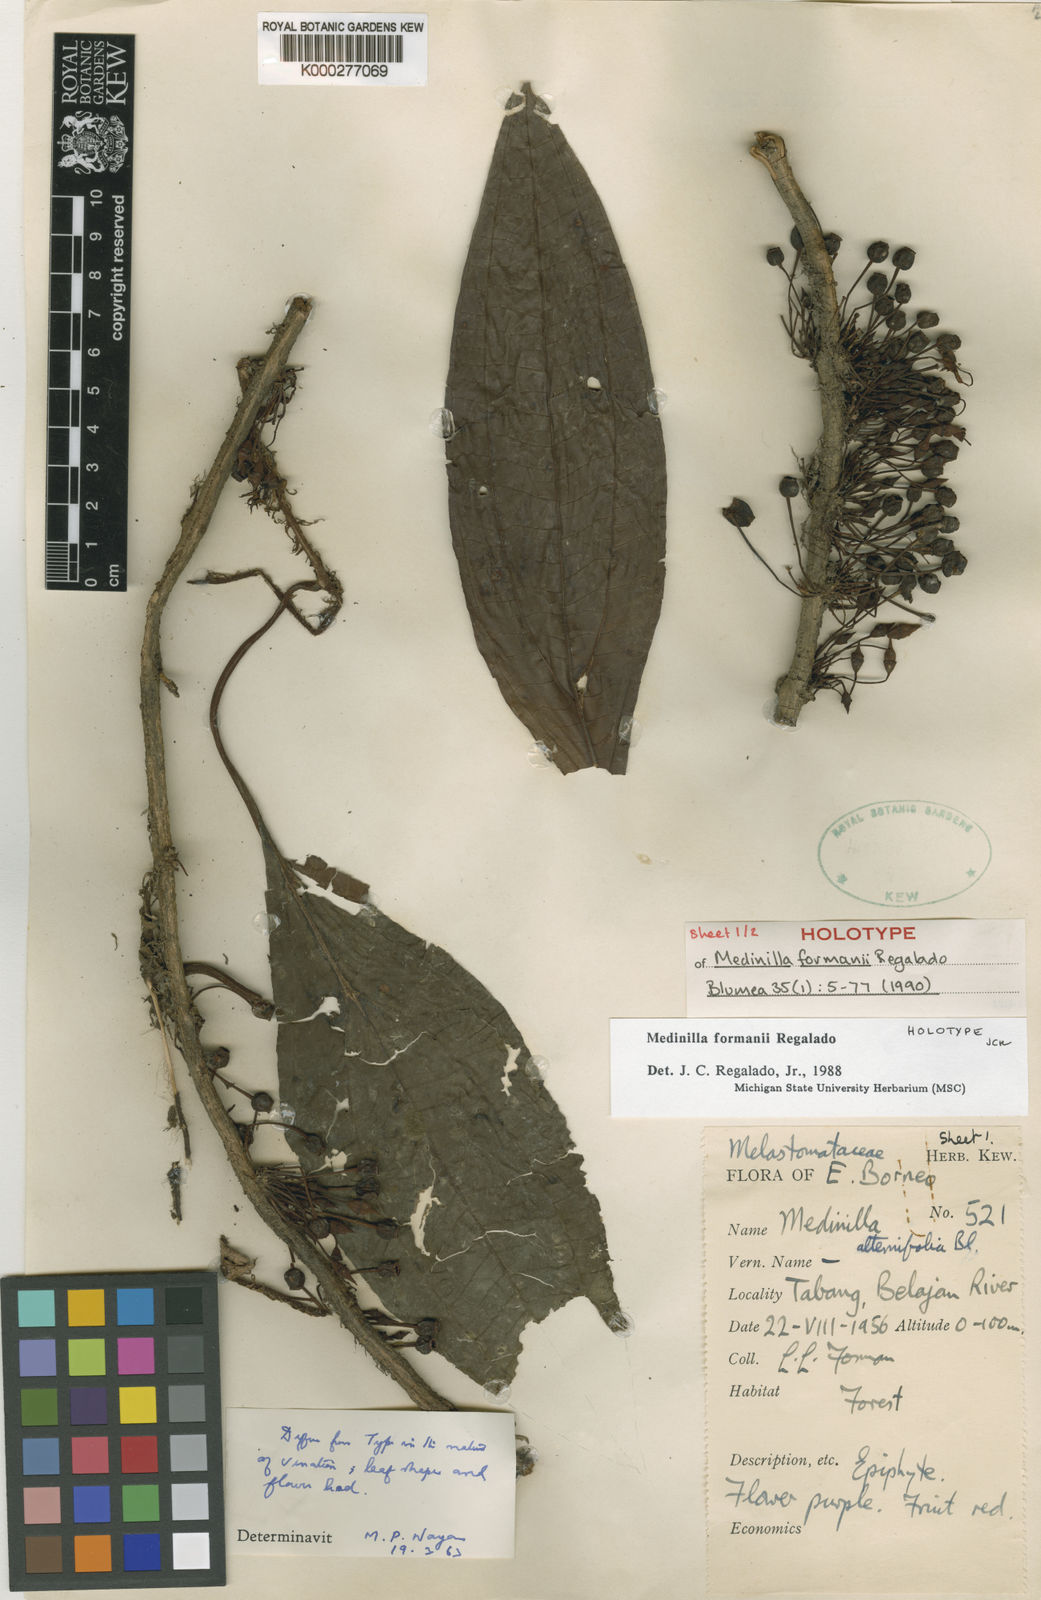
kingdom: Plantae
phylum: Tracheophyta
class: Magnoliopsida
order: Myrtales
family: Melastomataceae
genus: Heteroblemma
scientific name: Heteroblemma formanii
